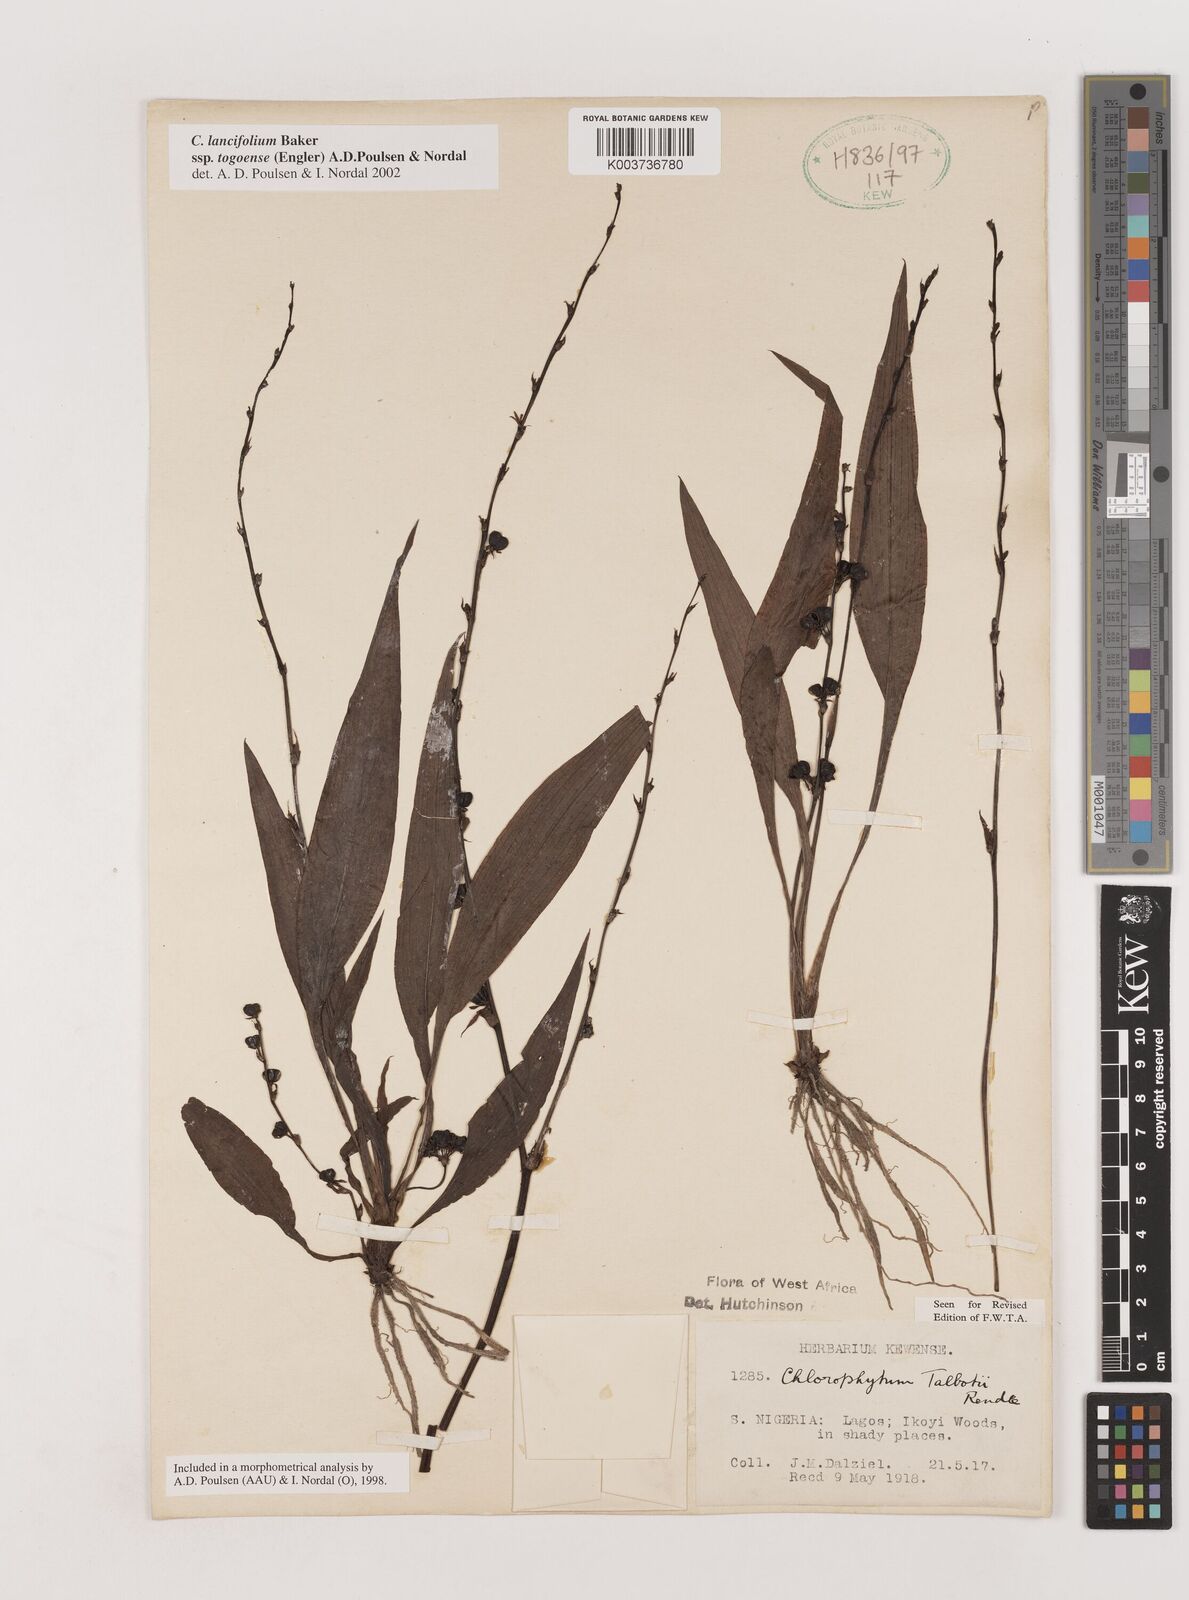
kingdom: Plantae
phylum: Tracheophyta
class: Liliopsida
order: Asparagales
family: Asparagaceae
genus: Chlorophytum
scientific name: Chlorophytum lancifolium
